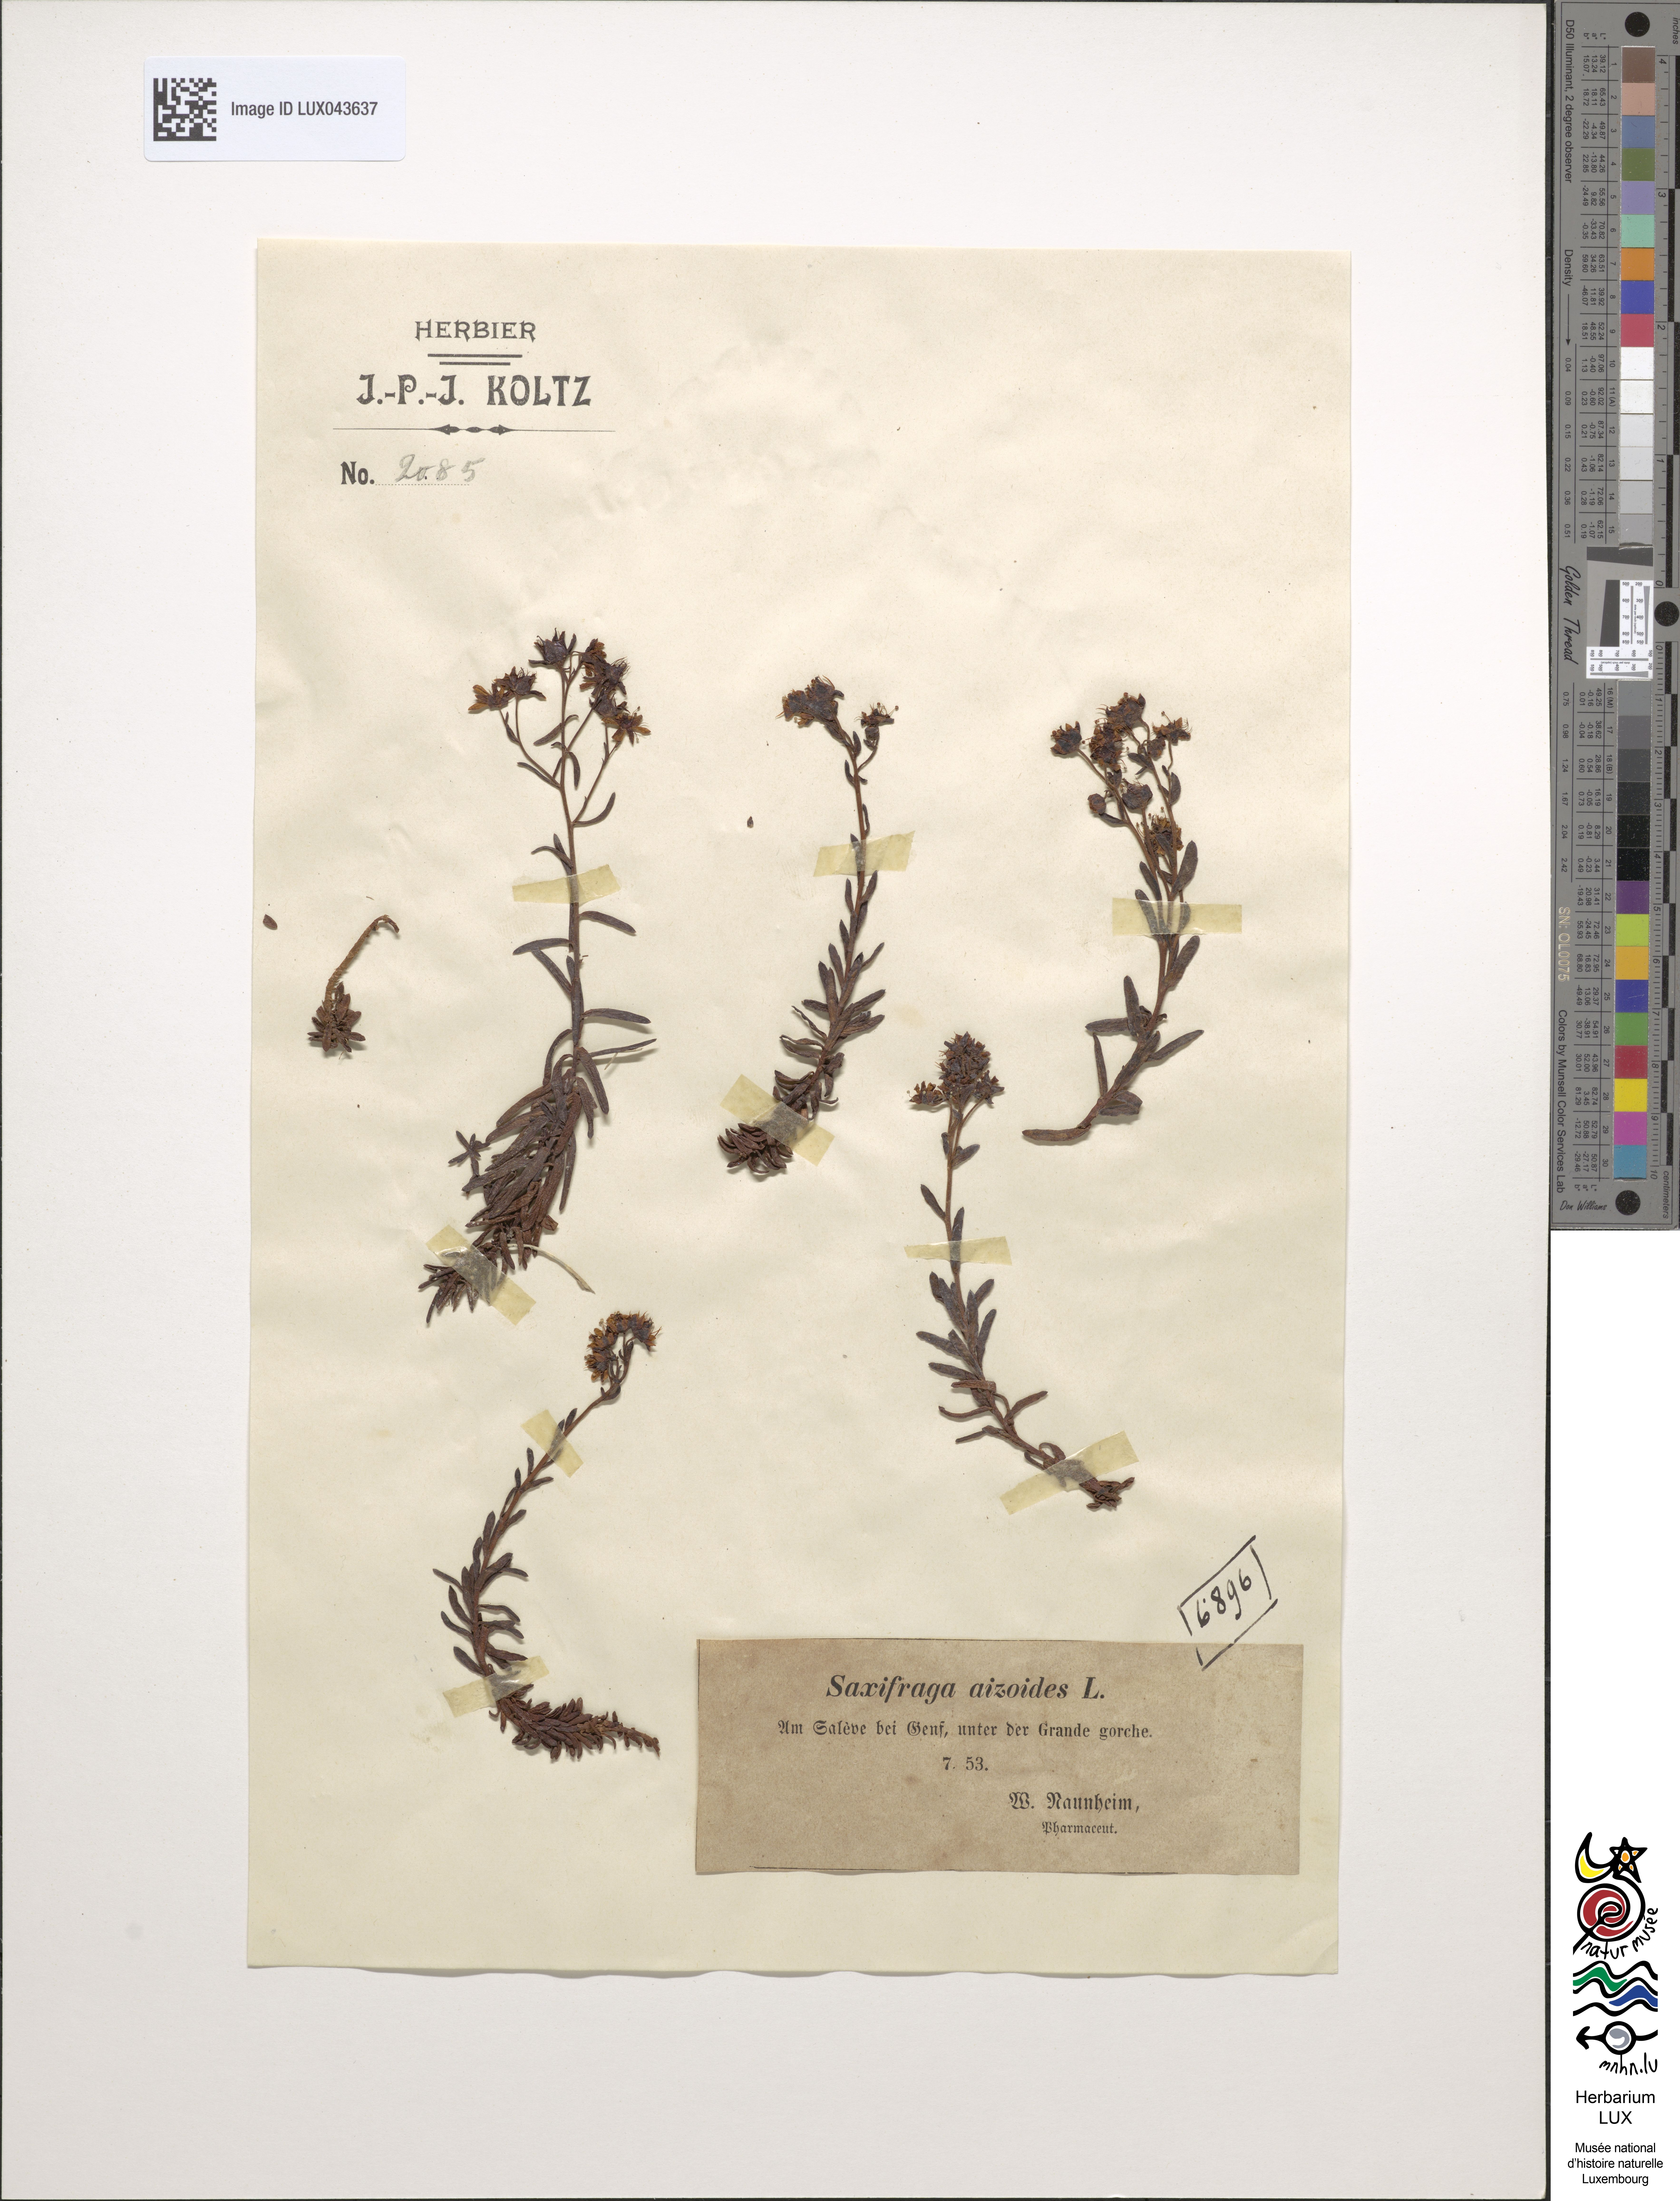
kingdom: Plantae
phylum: Tracheophyta
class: Magnoliopsida
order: Saxifragales
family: Saxifragaceae
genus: Saxifraga
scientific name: Saxifraga aizoides
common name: Yellow mountain saxifrage
